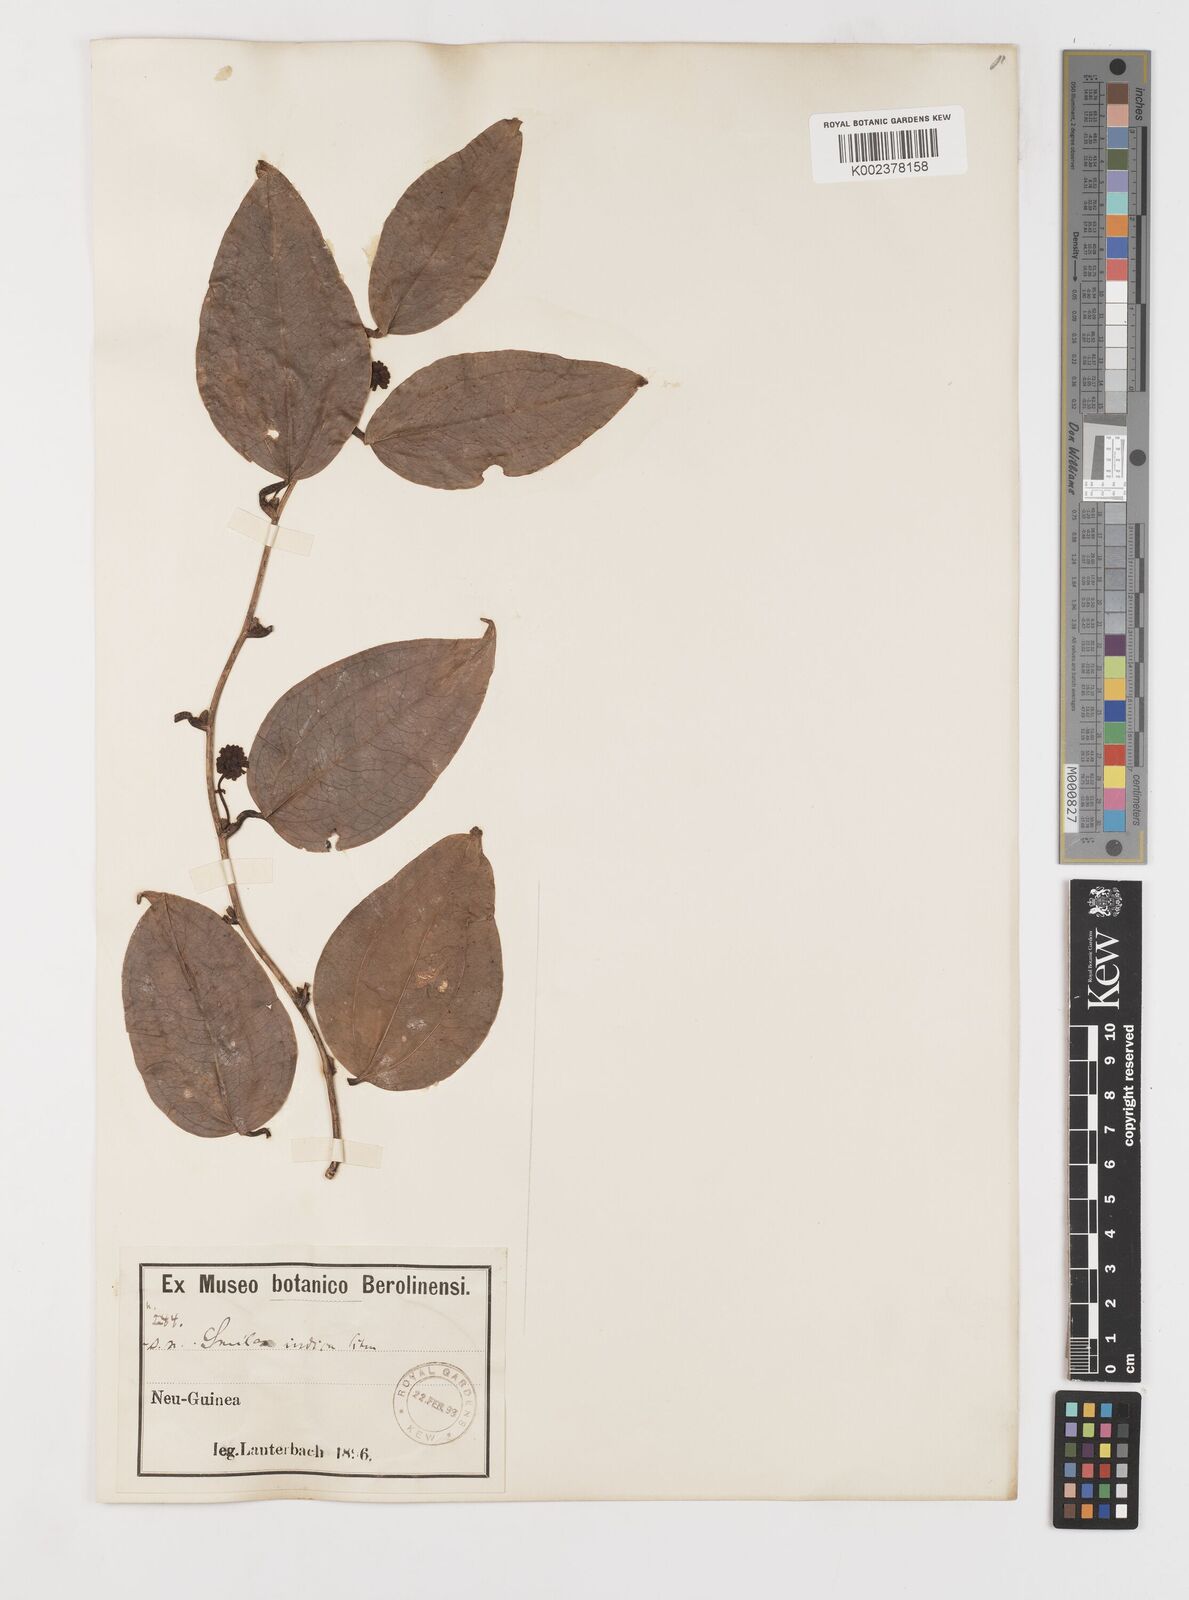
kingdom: Plantae
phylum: Tracheophyta
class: Liliopsida
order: Liliales
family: Smilacaceae
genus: Smilax
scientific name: Smilax zeylanica
